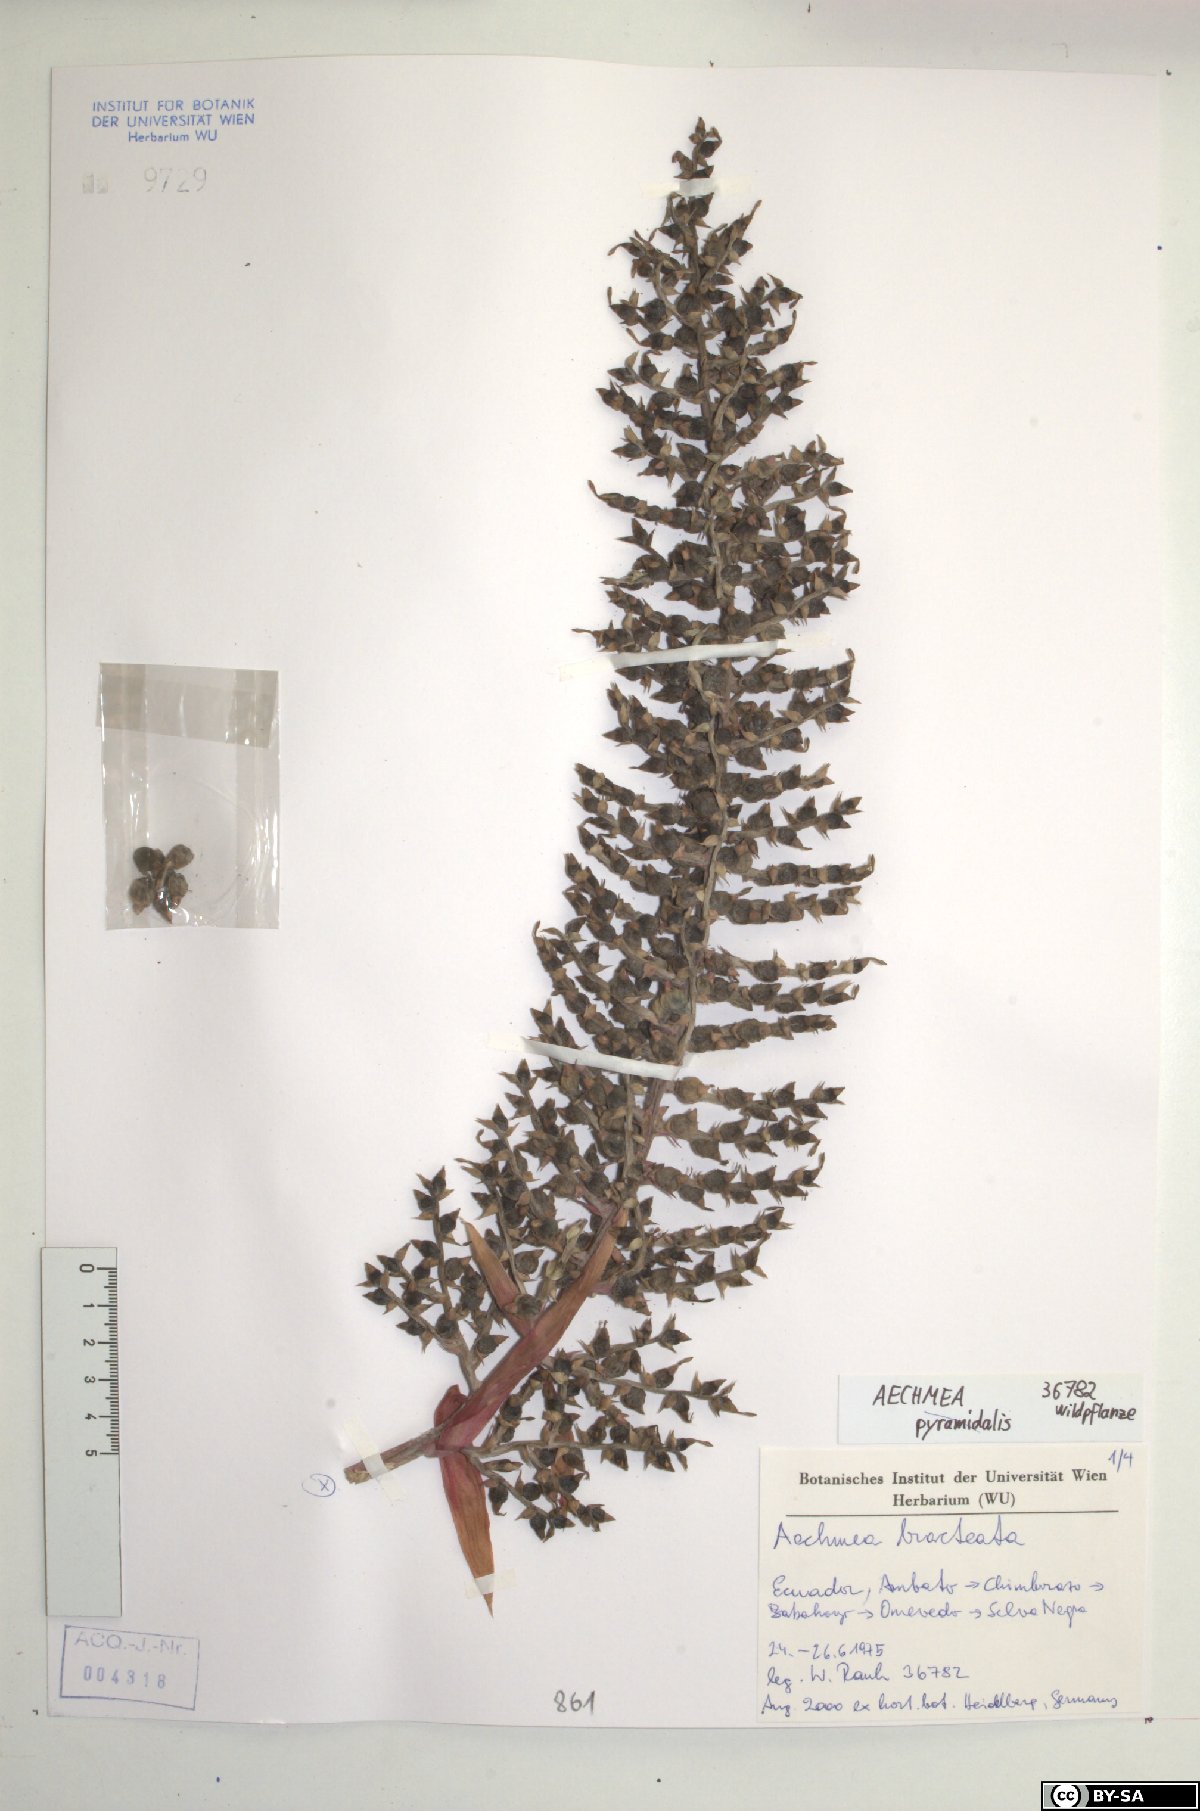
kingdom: Plantae
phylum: Tracheophyta
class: Liliopsida
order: Poales
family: Bromeliaceae
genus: Aechmea
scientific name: Aechmea bracteata
